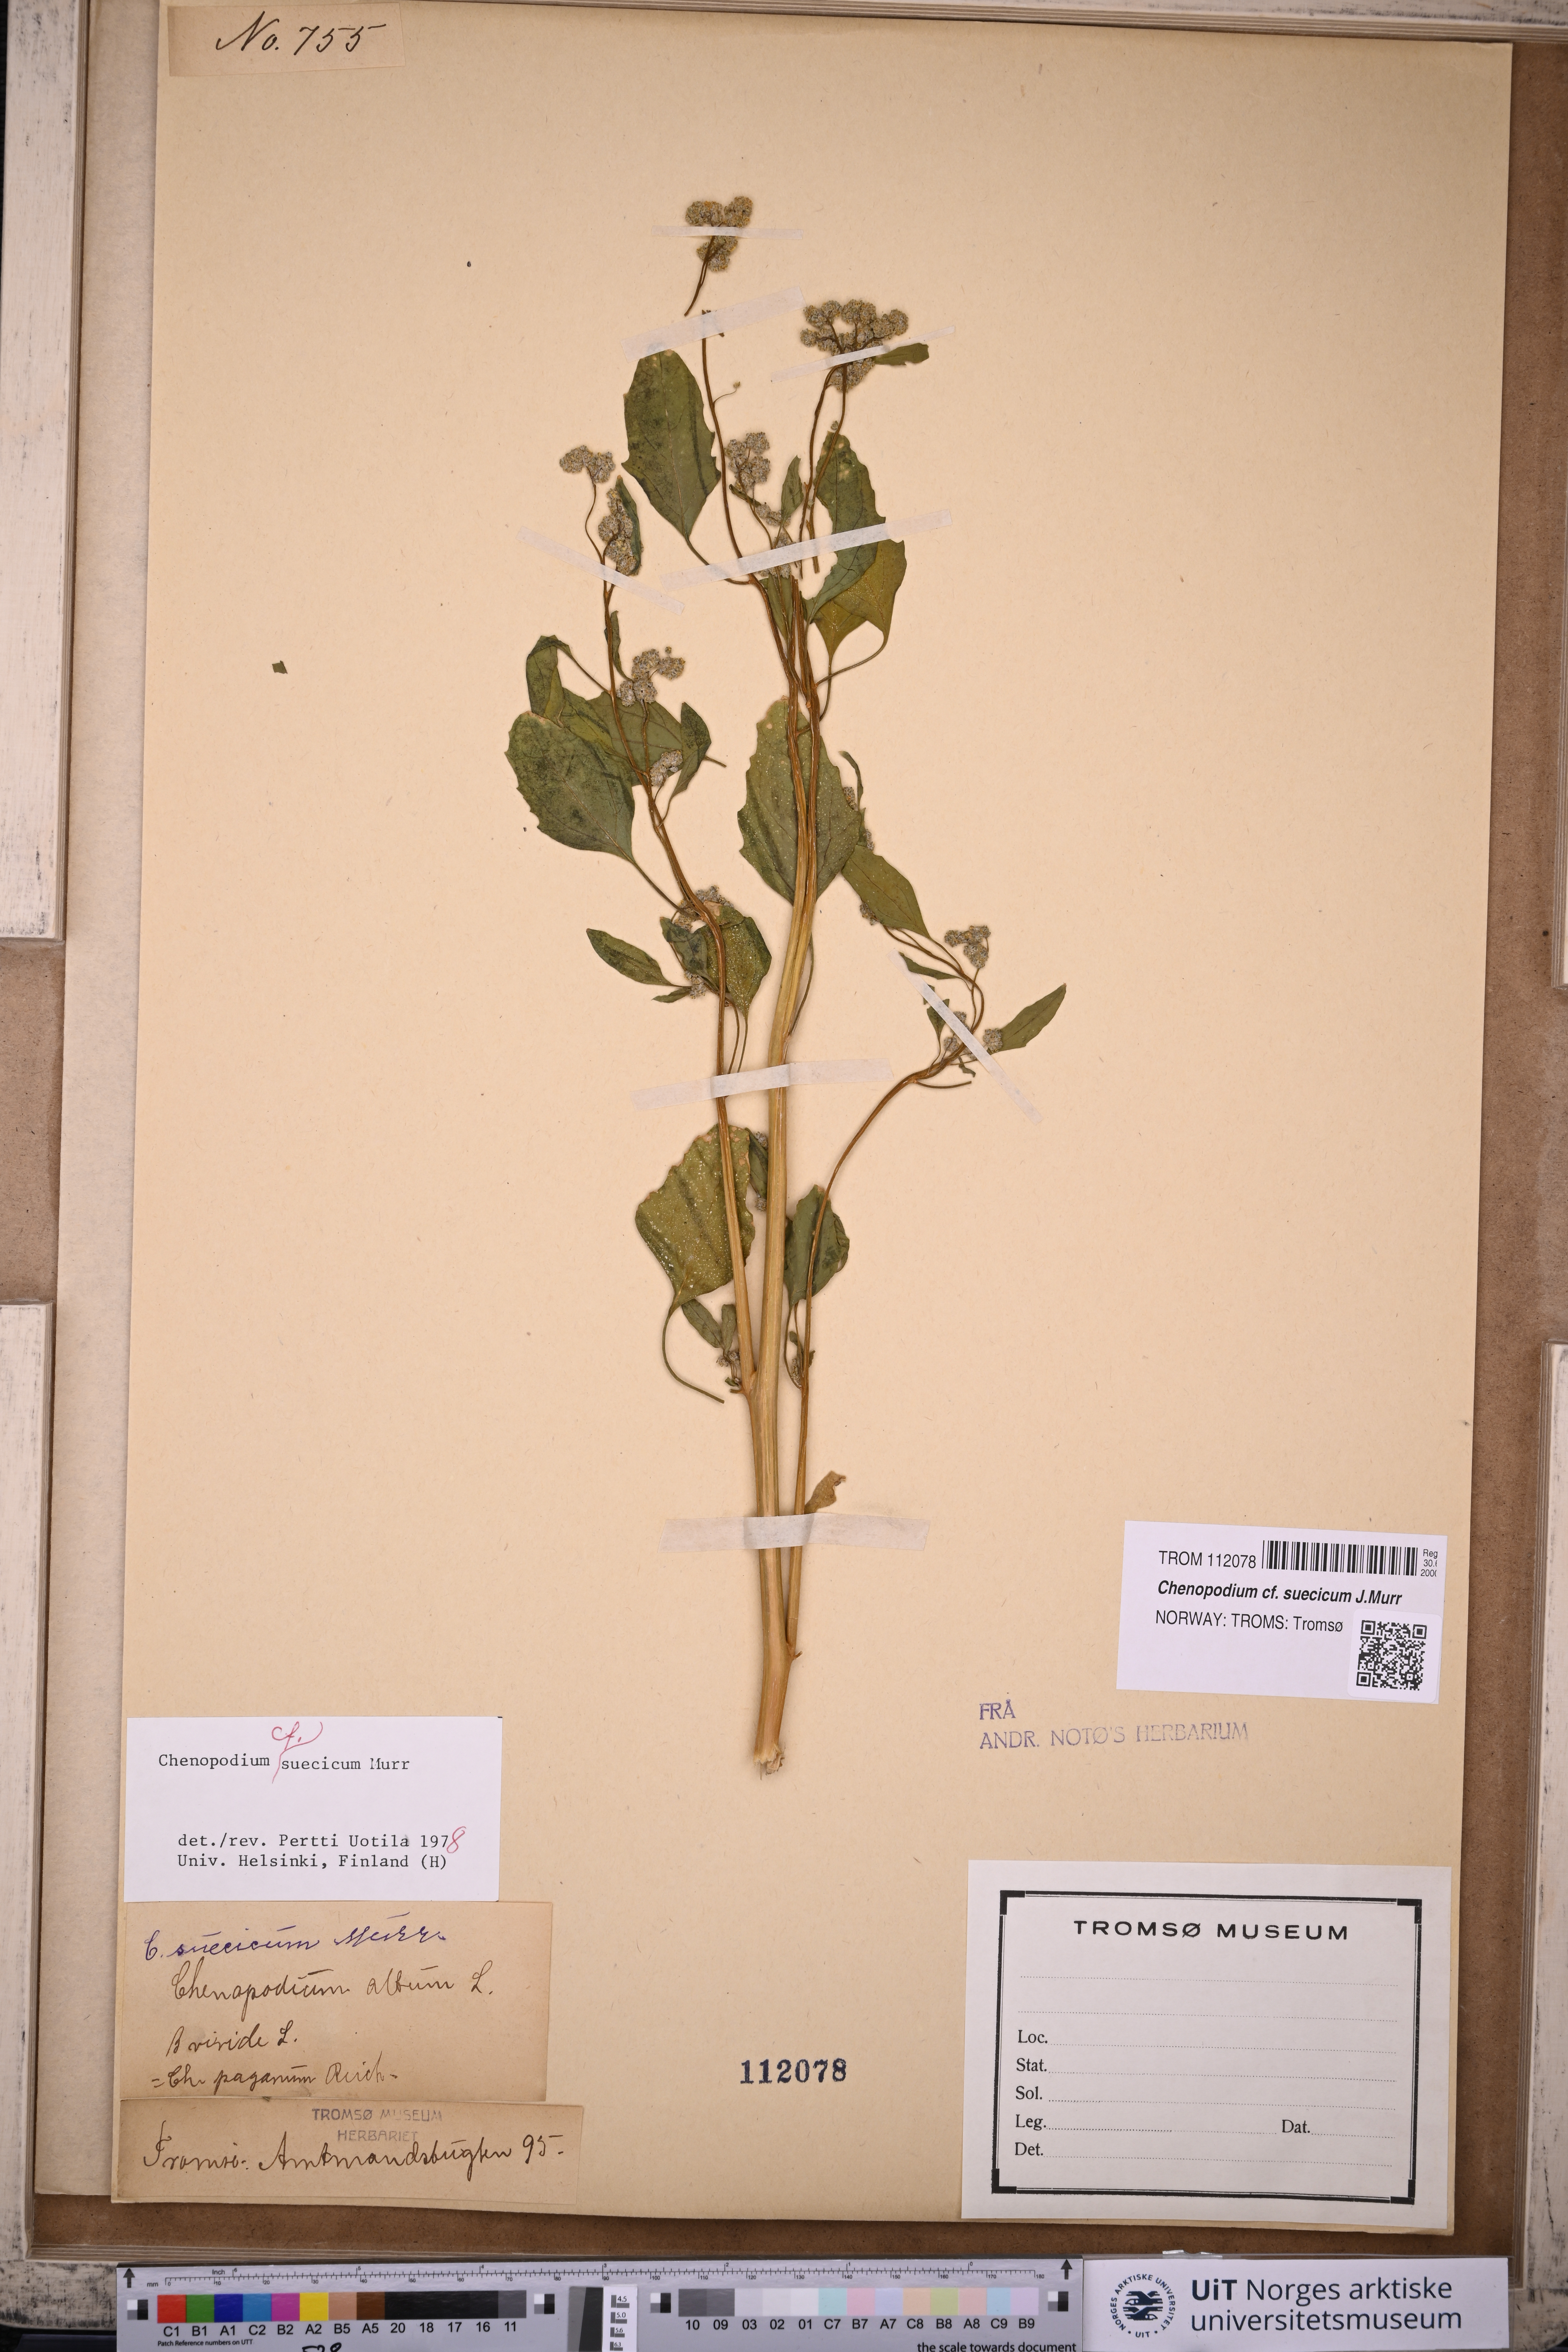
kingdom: Plantae
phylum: Tracheophyta
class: Magnoliopsida
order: Caryophyllales
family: Amaranthaceae
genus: Chenopodium
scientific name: Chenopodium suecicum
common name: Swedish goosefoot
